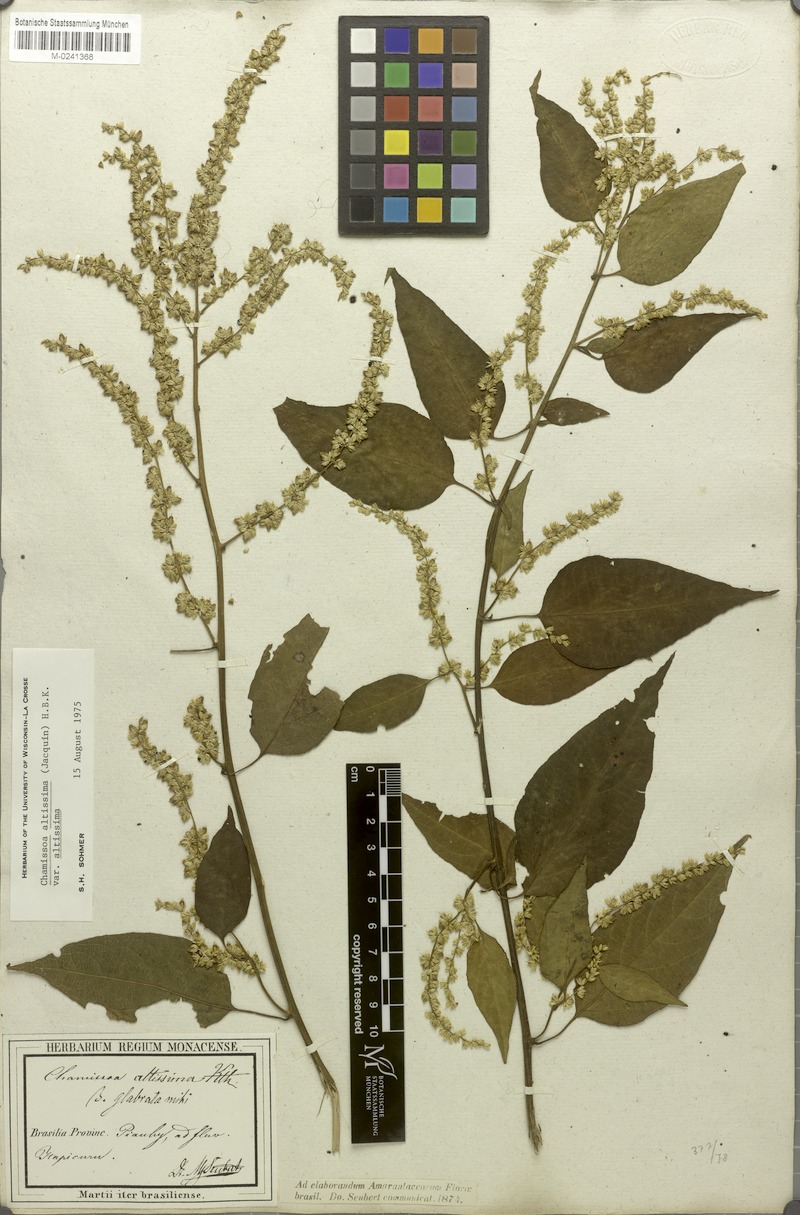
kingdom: Plantae
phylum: Tracheophyta
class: Magnoliopsida
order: Caryophyllales
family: Amaranthaceae
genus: Chamissoa
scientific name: Chamissoa altissima
